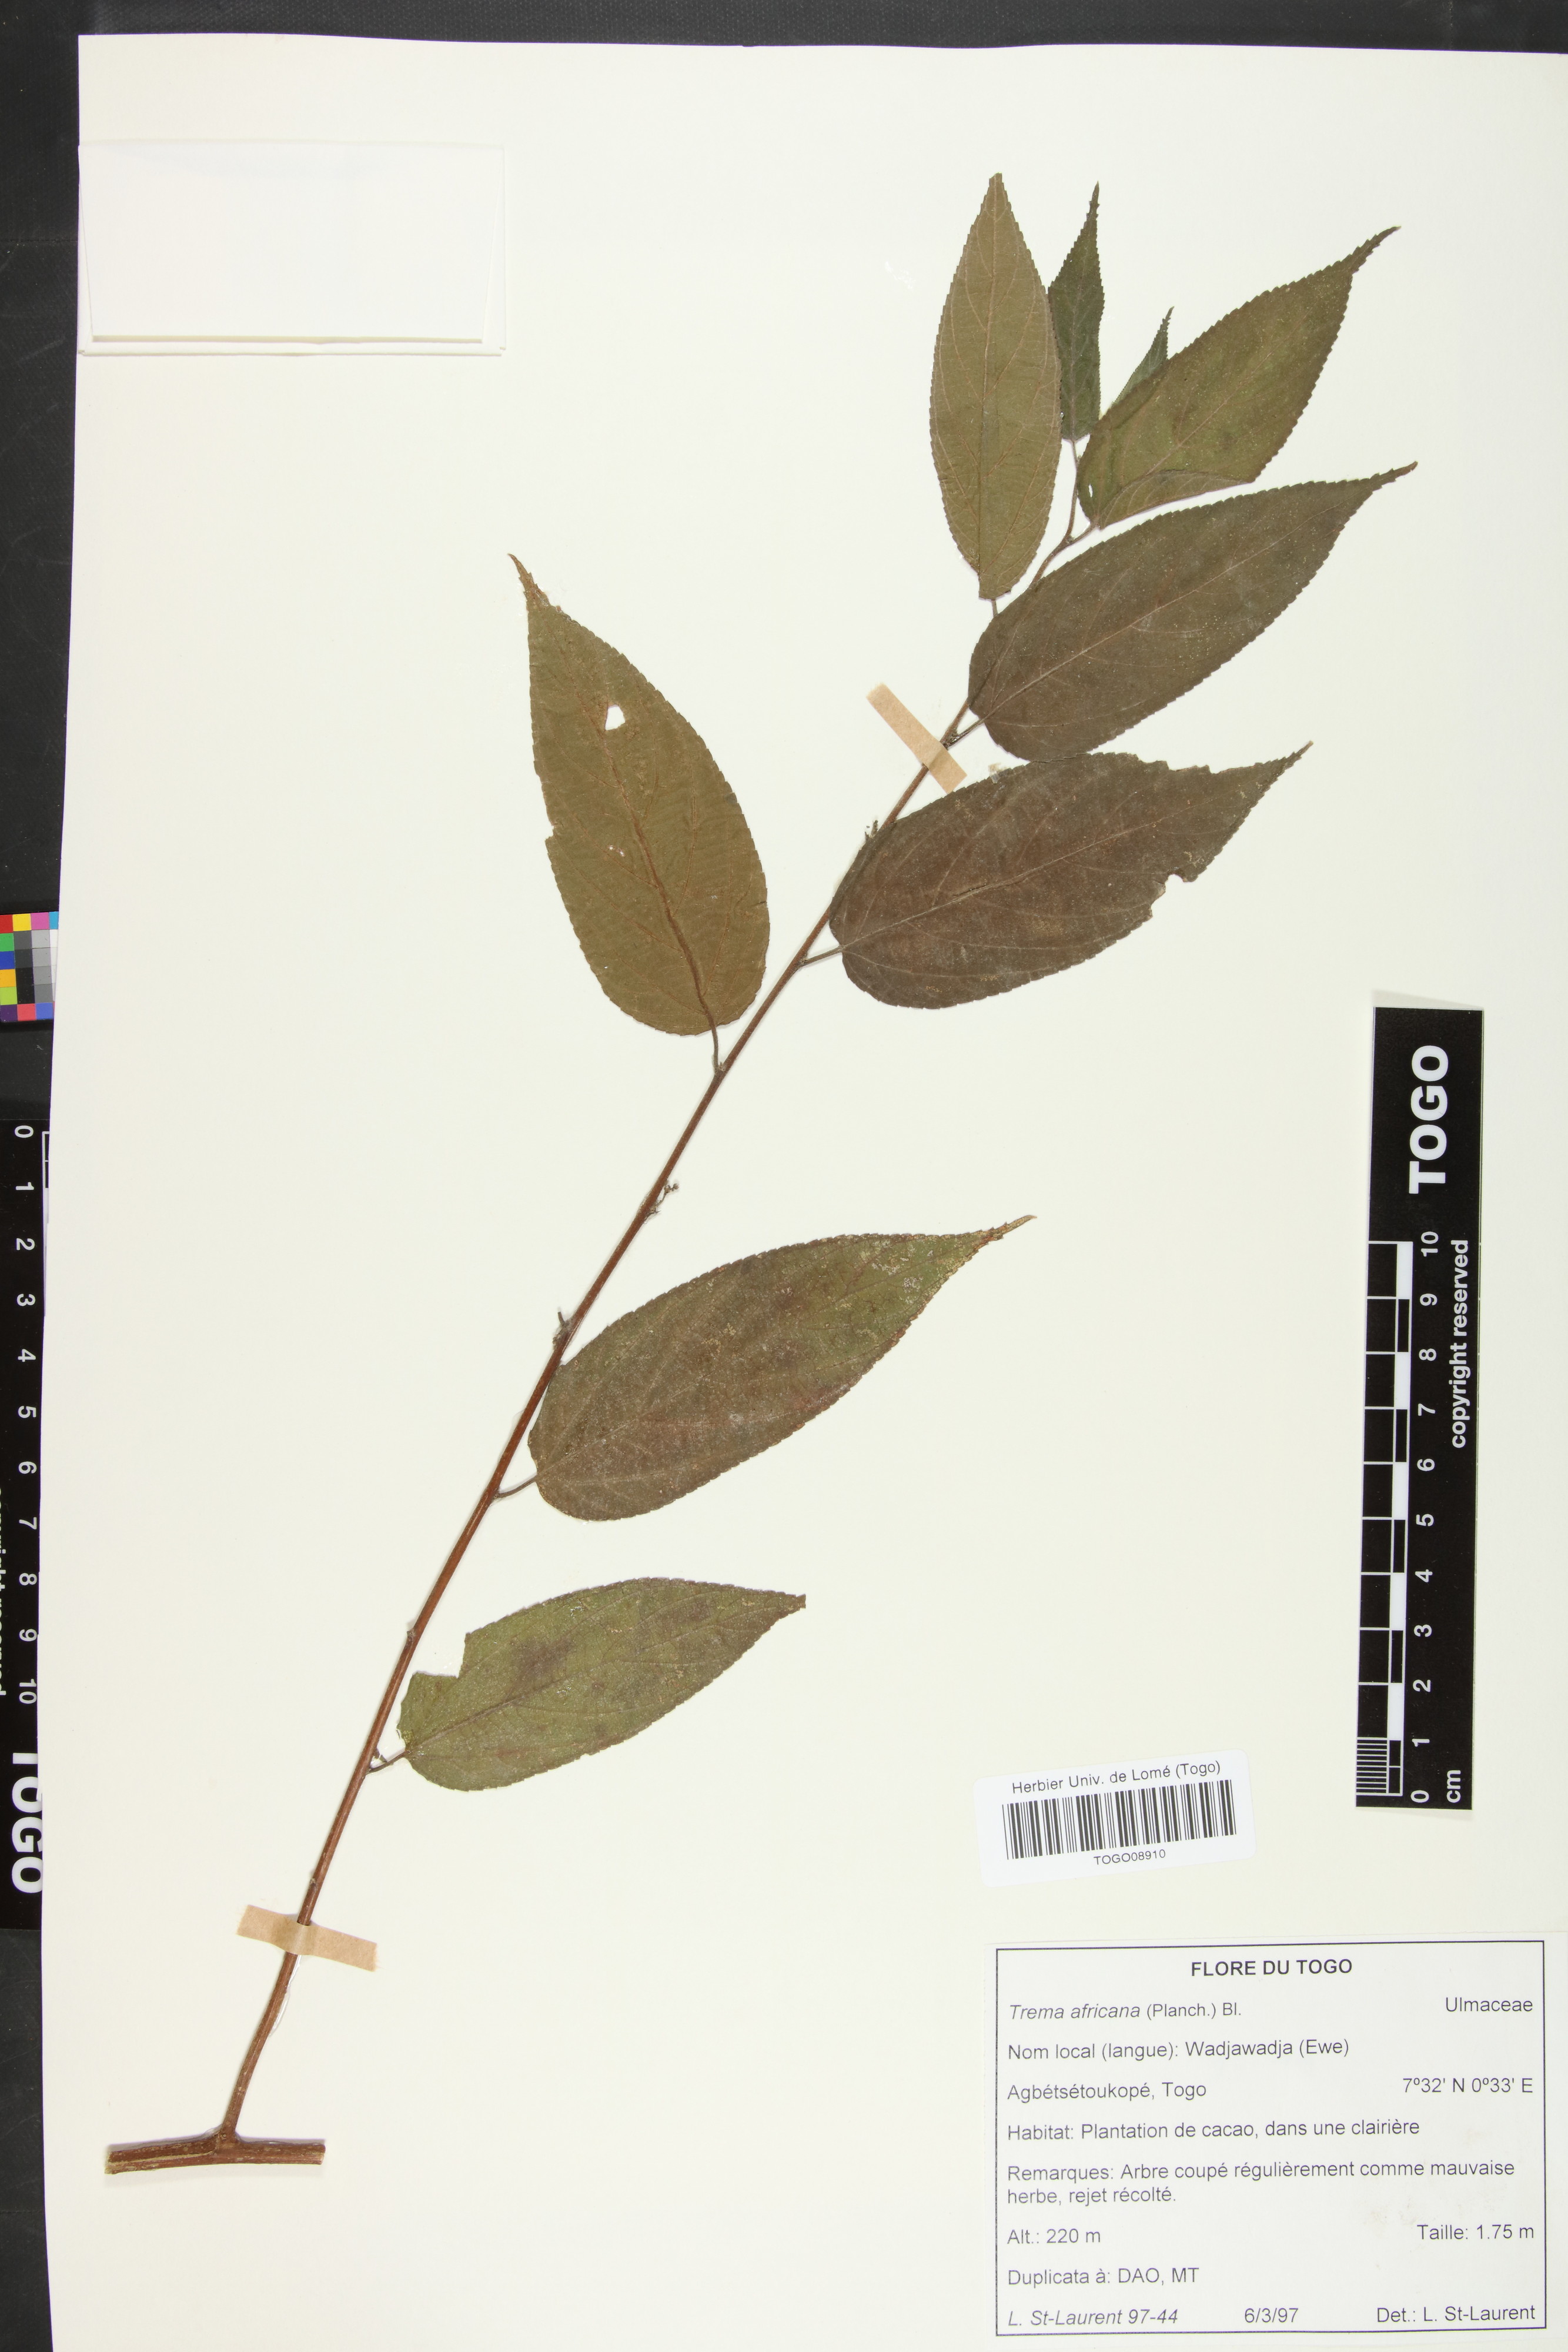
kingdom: Plantae
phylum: Tracheophyta
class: Magnoliopsida
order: Rosales
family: Cannabaceae
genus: Trema
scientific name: Trema orientale
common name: Indian charcoal tree
